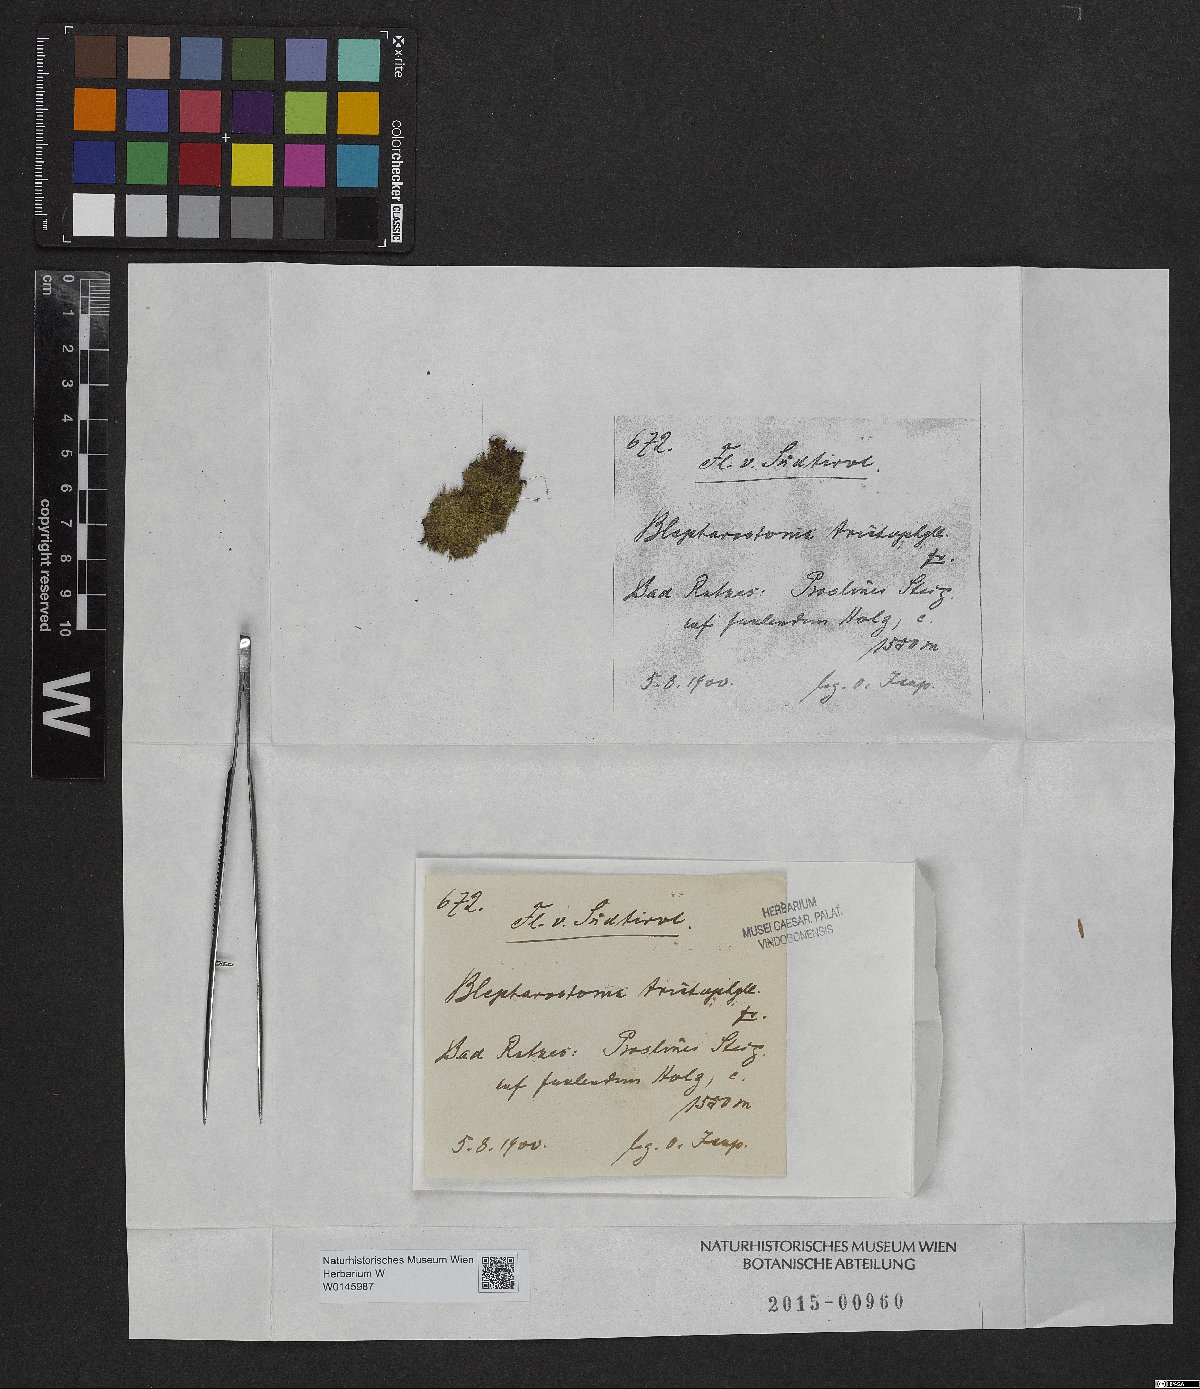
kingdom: Plantae
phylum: Marchantiophyta
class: Jungermanniopsida
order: Jungermanniales
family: Blepharostomataceae
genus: Blepharostoma
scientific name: Blepharostoma trichophyllum
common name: Hairy threadwort
